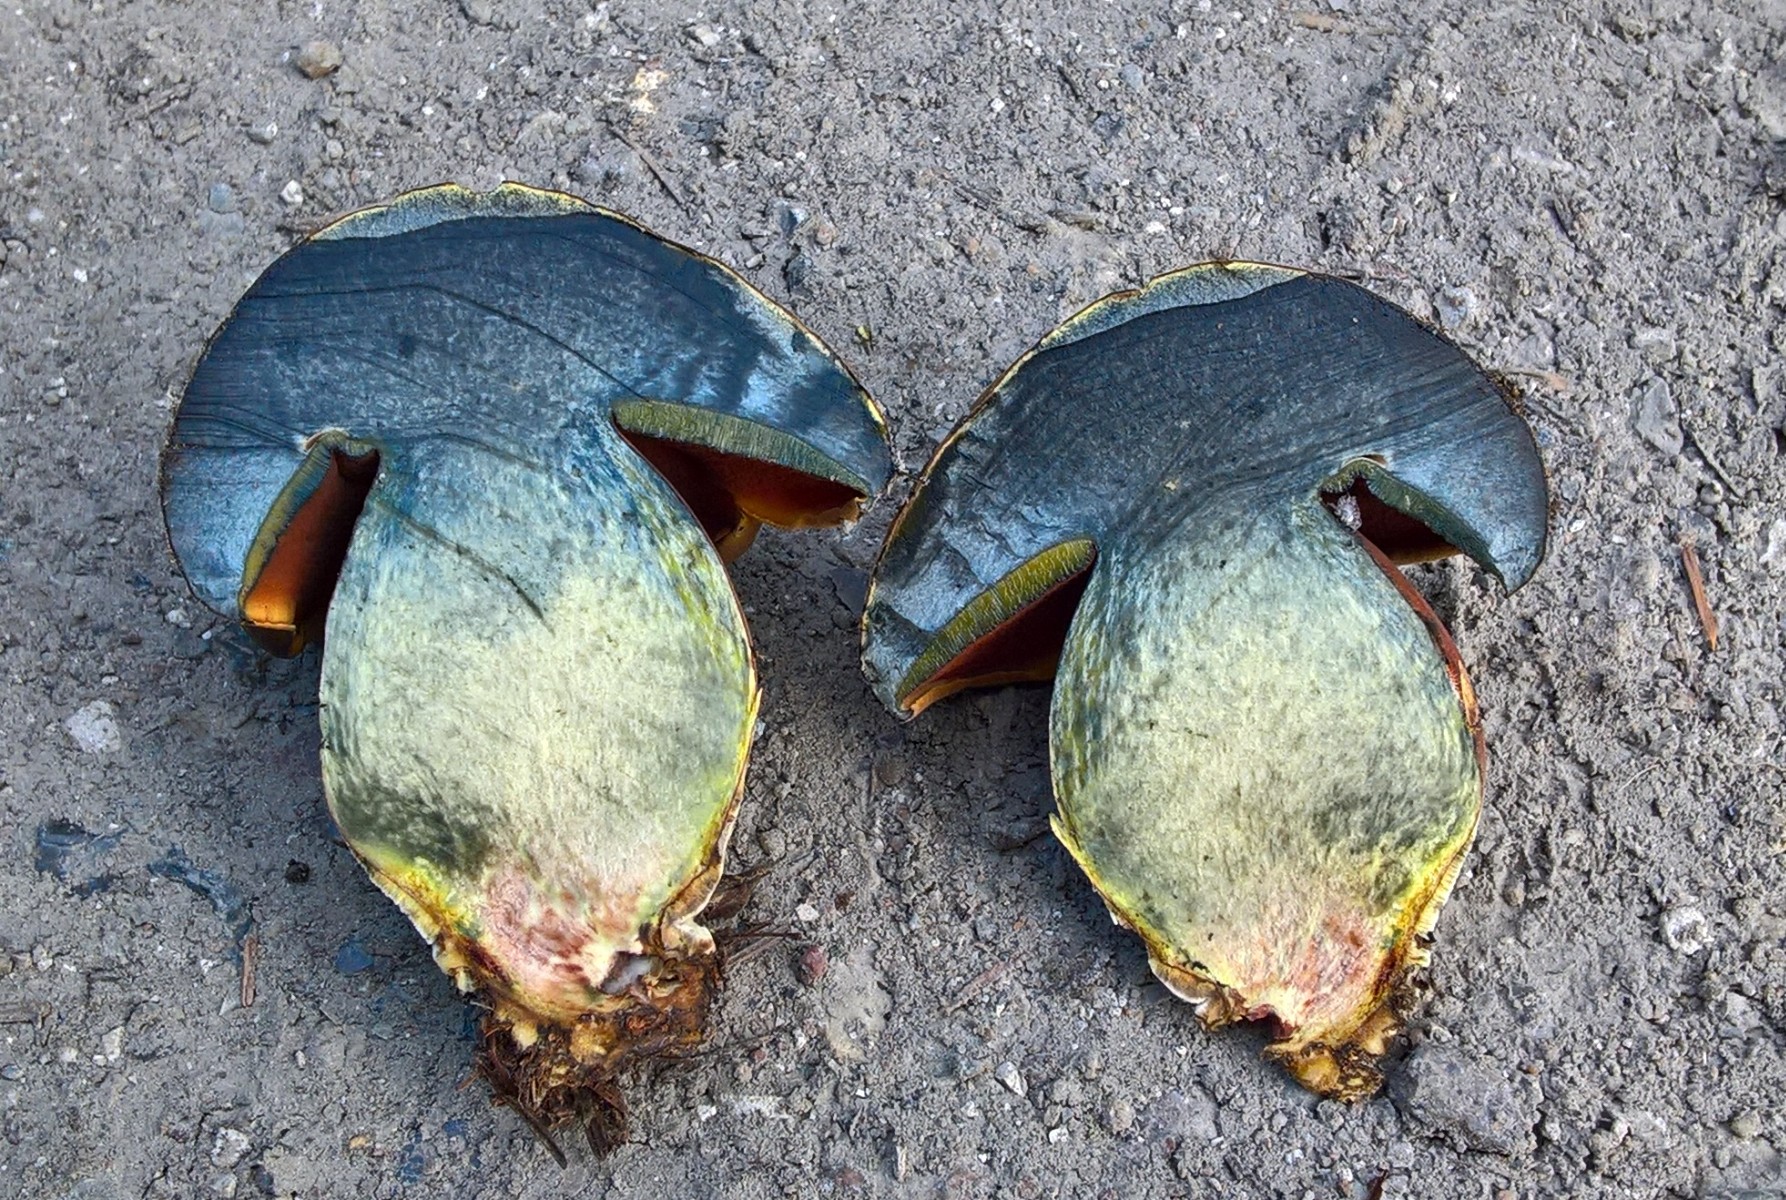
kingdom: Fungi
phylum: Basidiomycota
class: Agaricomycetes
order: Boletales
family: Boletaceae
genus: Neoboletus
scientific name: Neoboletus erythropus
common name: punktstokket indigorørhat
